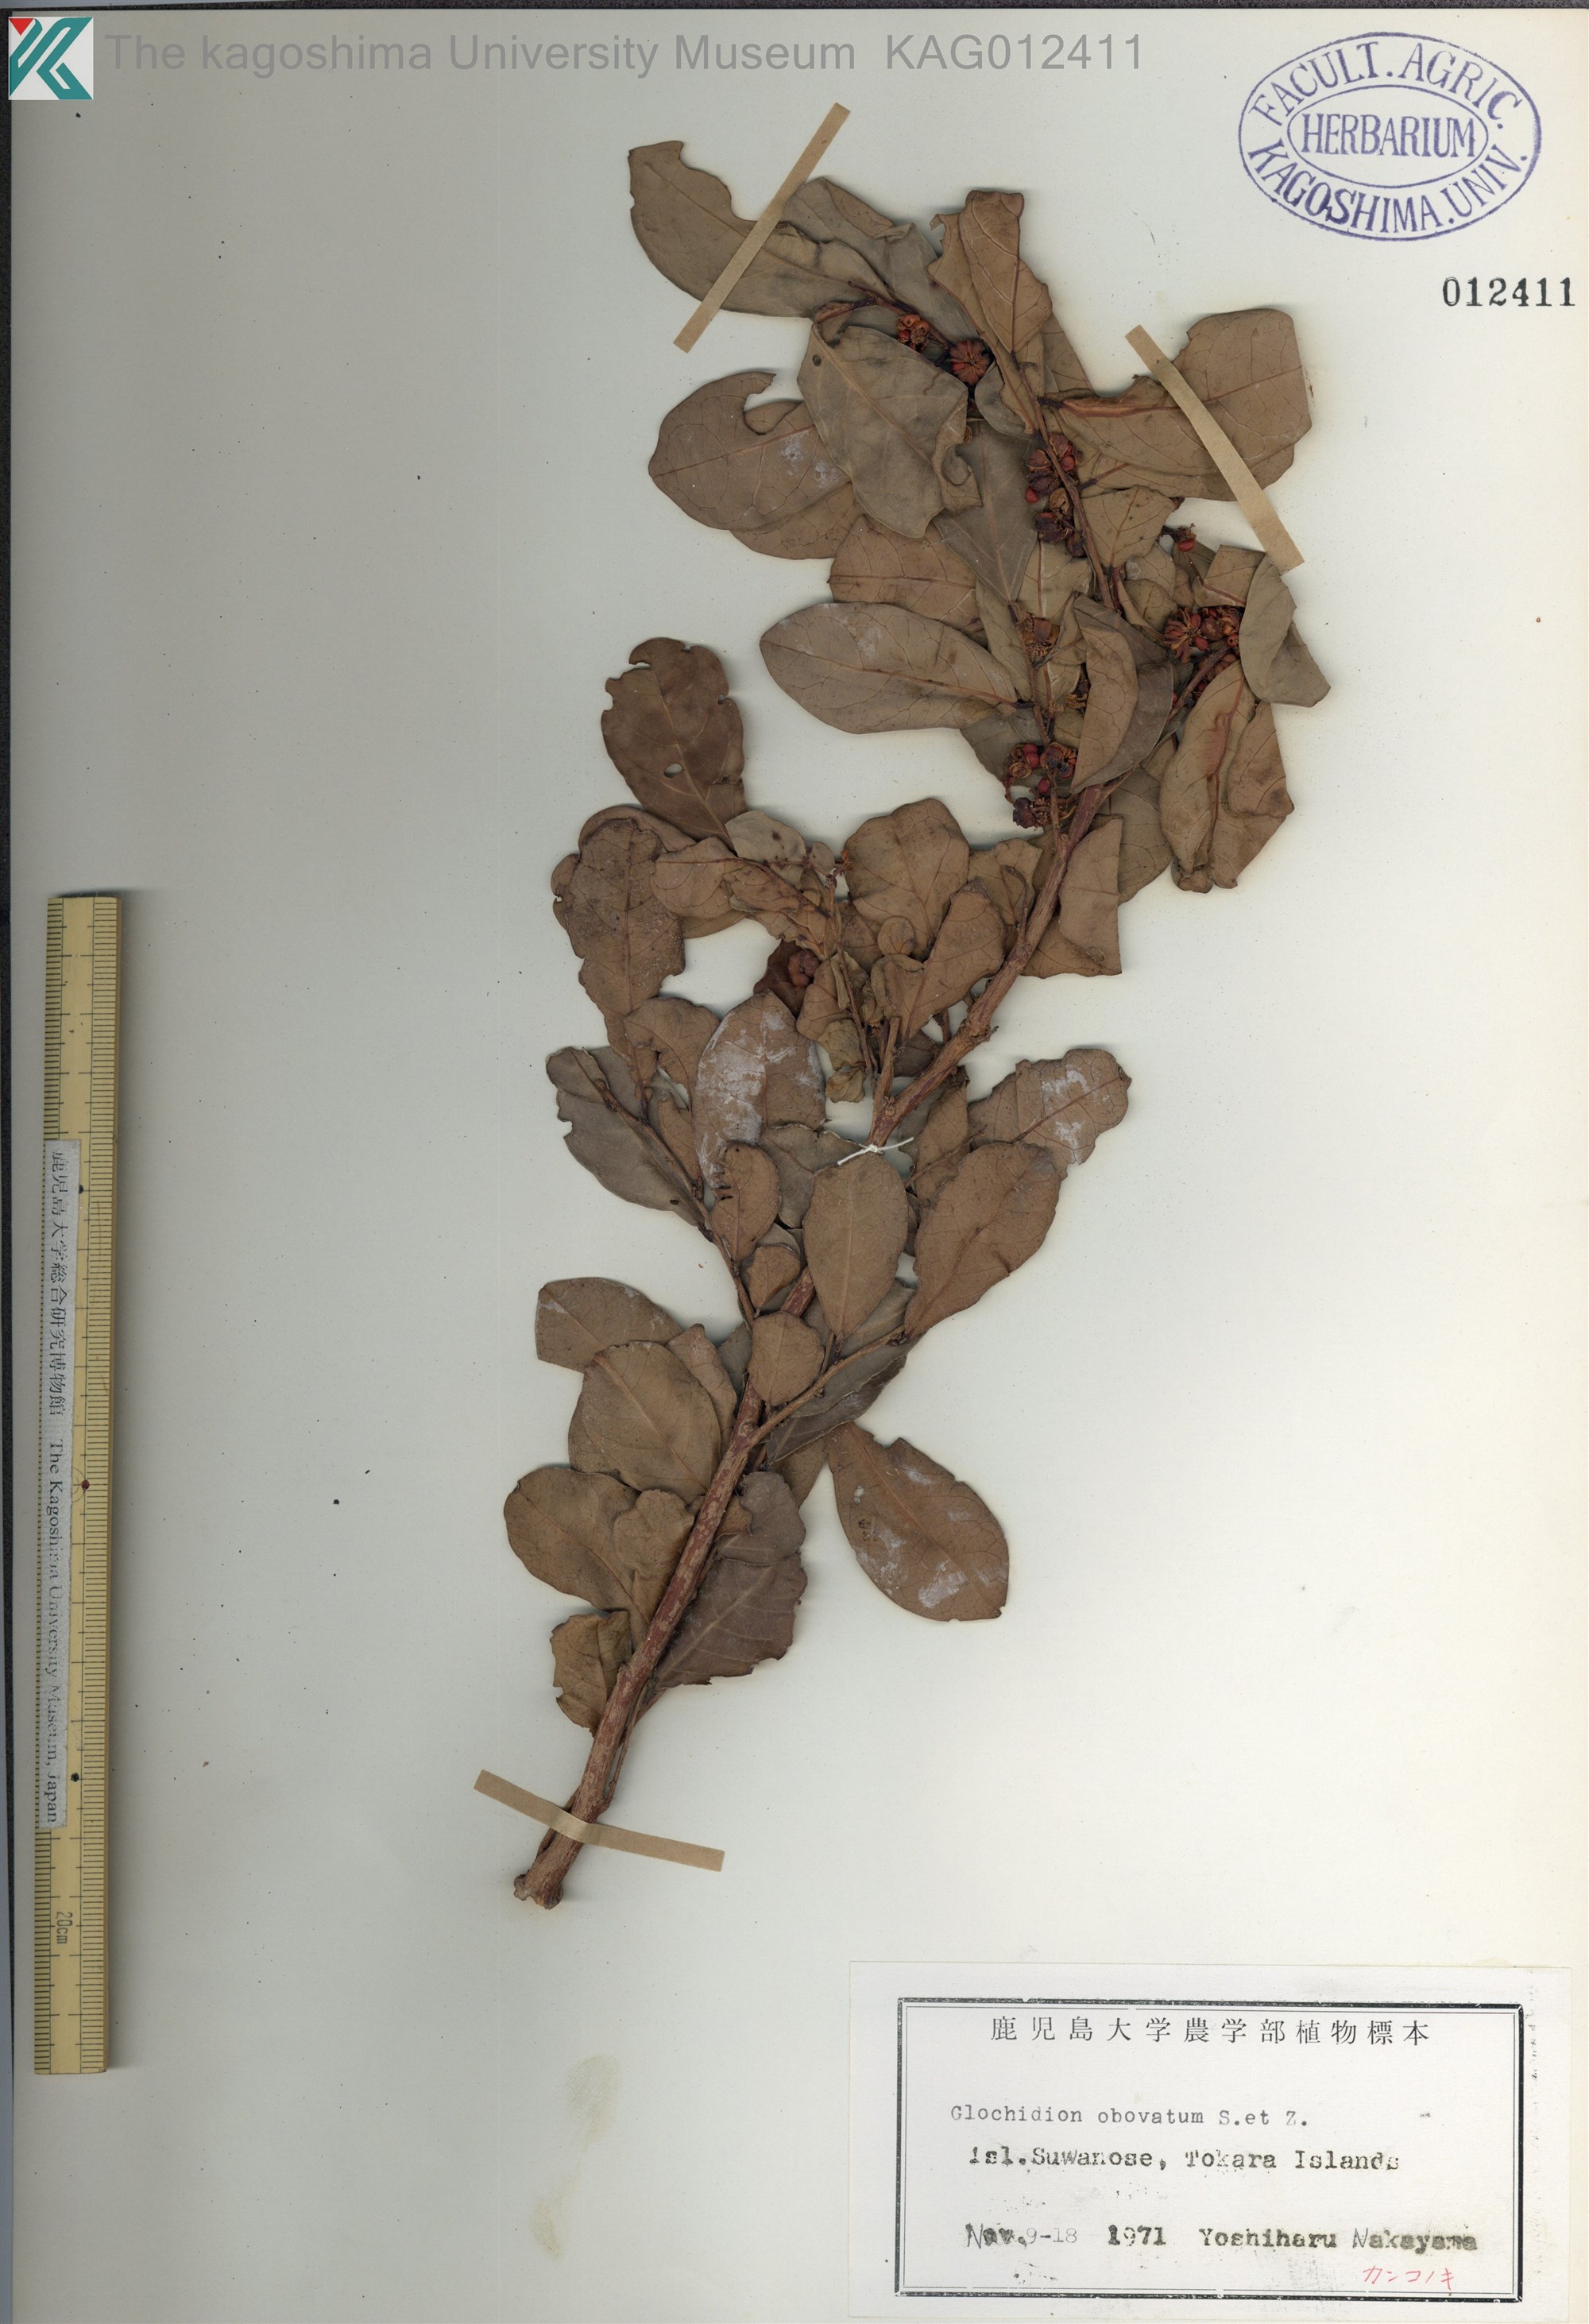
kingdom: Plantae
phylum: Tracheophyta
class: Magnoliopsida
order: Malpighiales
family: Phyllanthaceae
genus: Glochidion
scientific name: Glochidion obovatum
